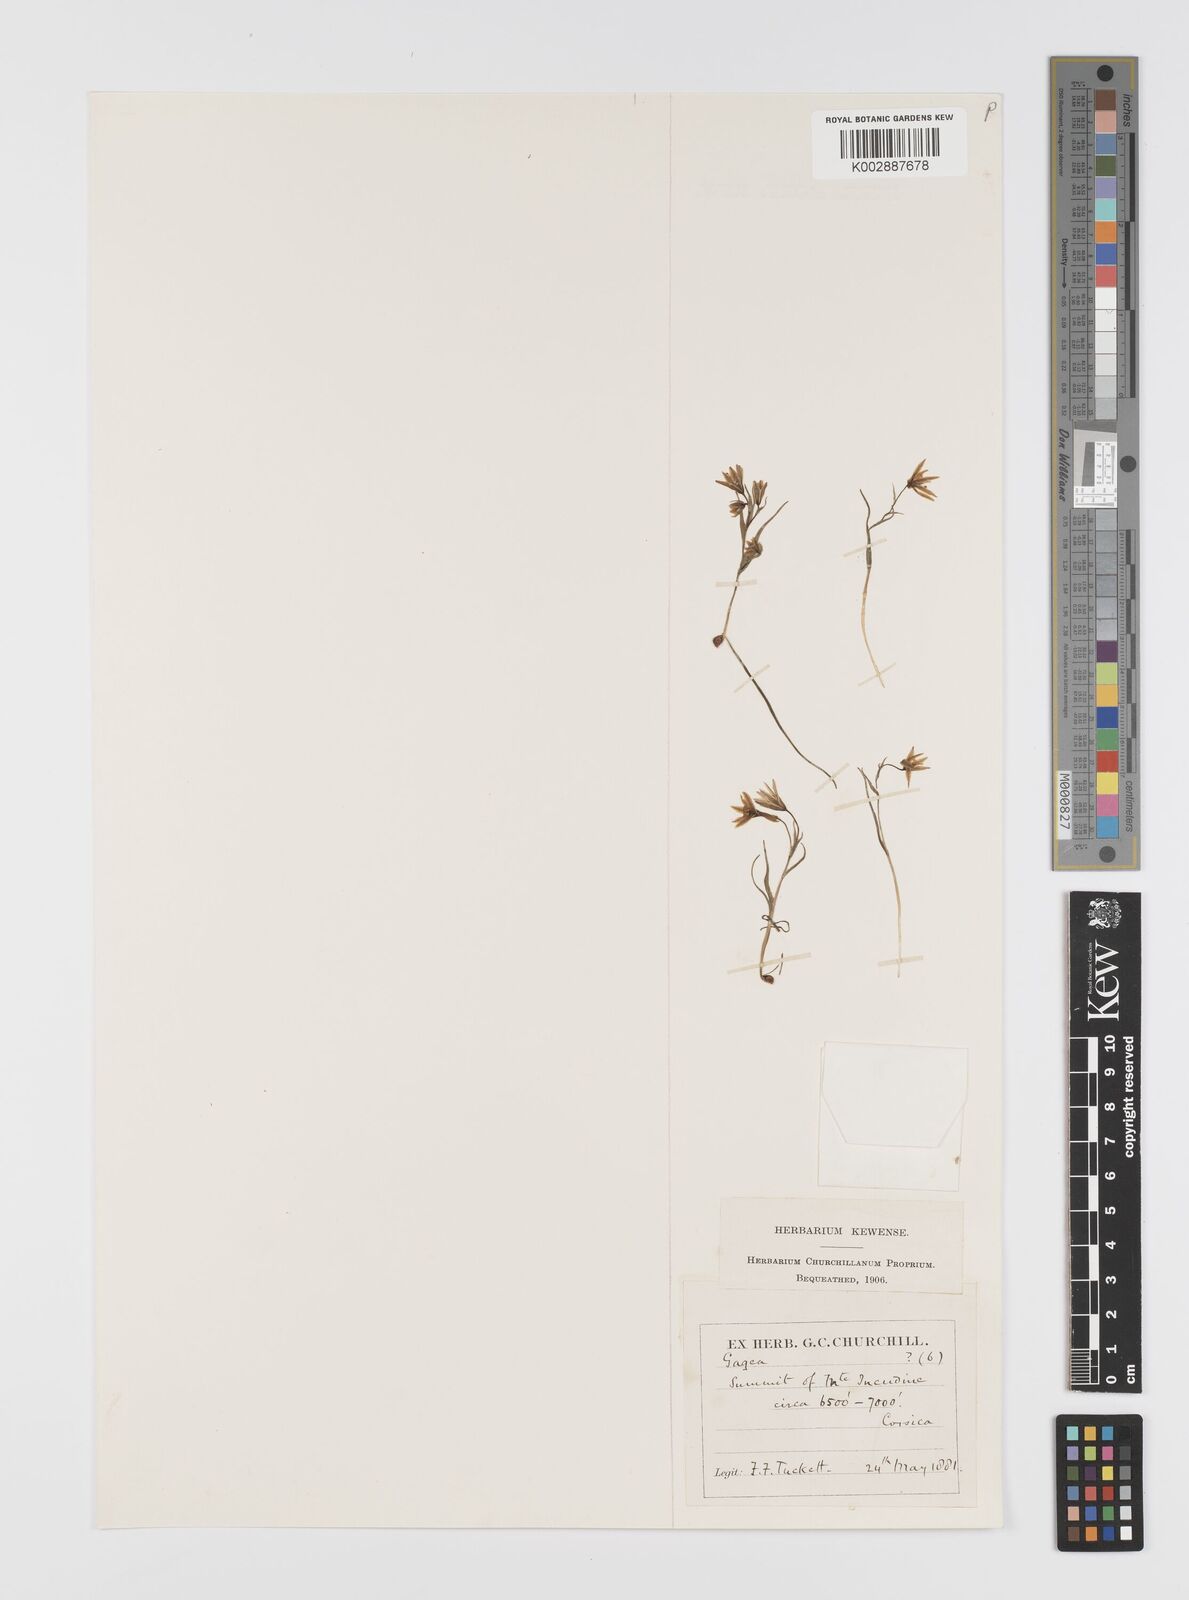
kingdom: Plantae
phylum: Tracheophyta
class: Liliopsida
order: Liliales
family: Liliaceae
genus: Gagea
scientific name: Gagea
